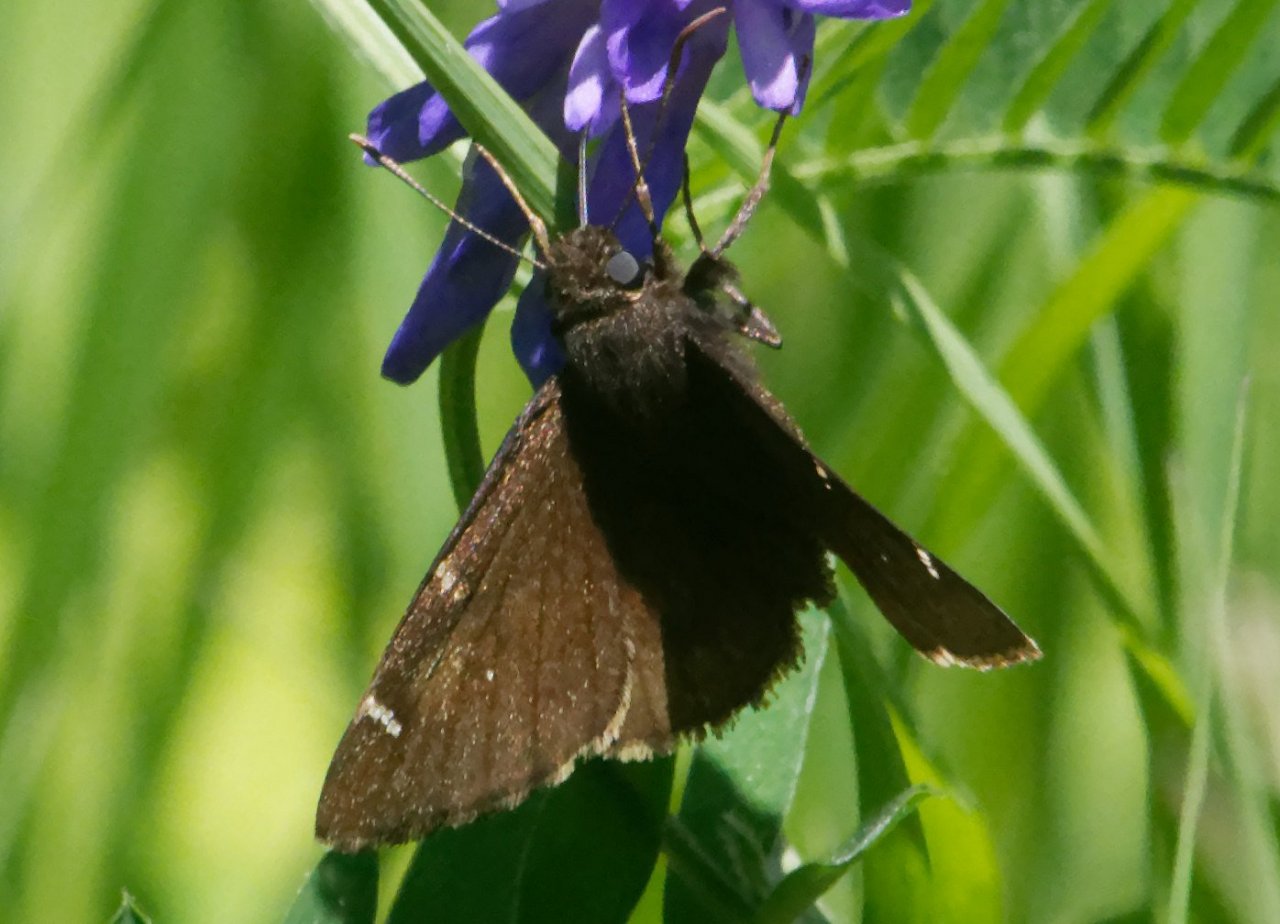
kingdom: Animalia
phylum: Arthropoda
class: Insecta
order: Lepidoptera
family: Hesperiidae
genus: Autochton
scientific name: Autochton
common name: Northern Cloudywing
